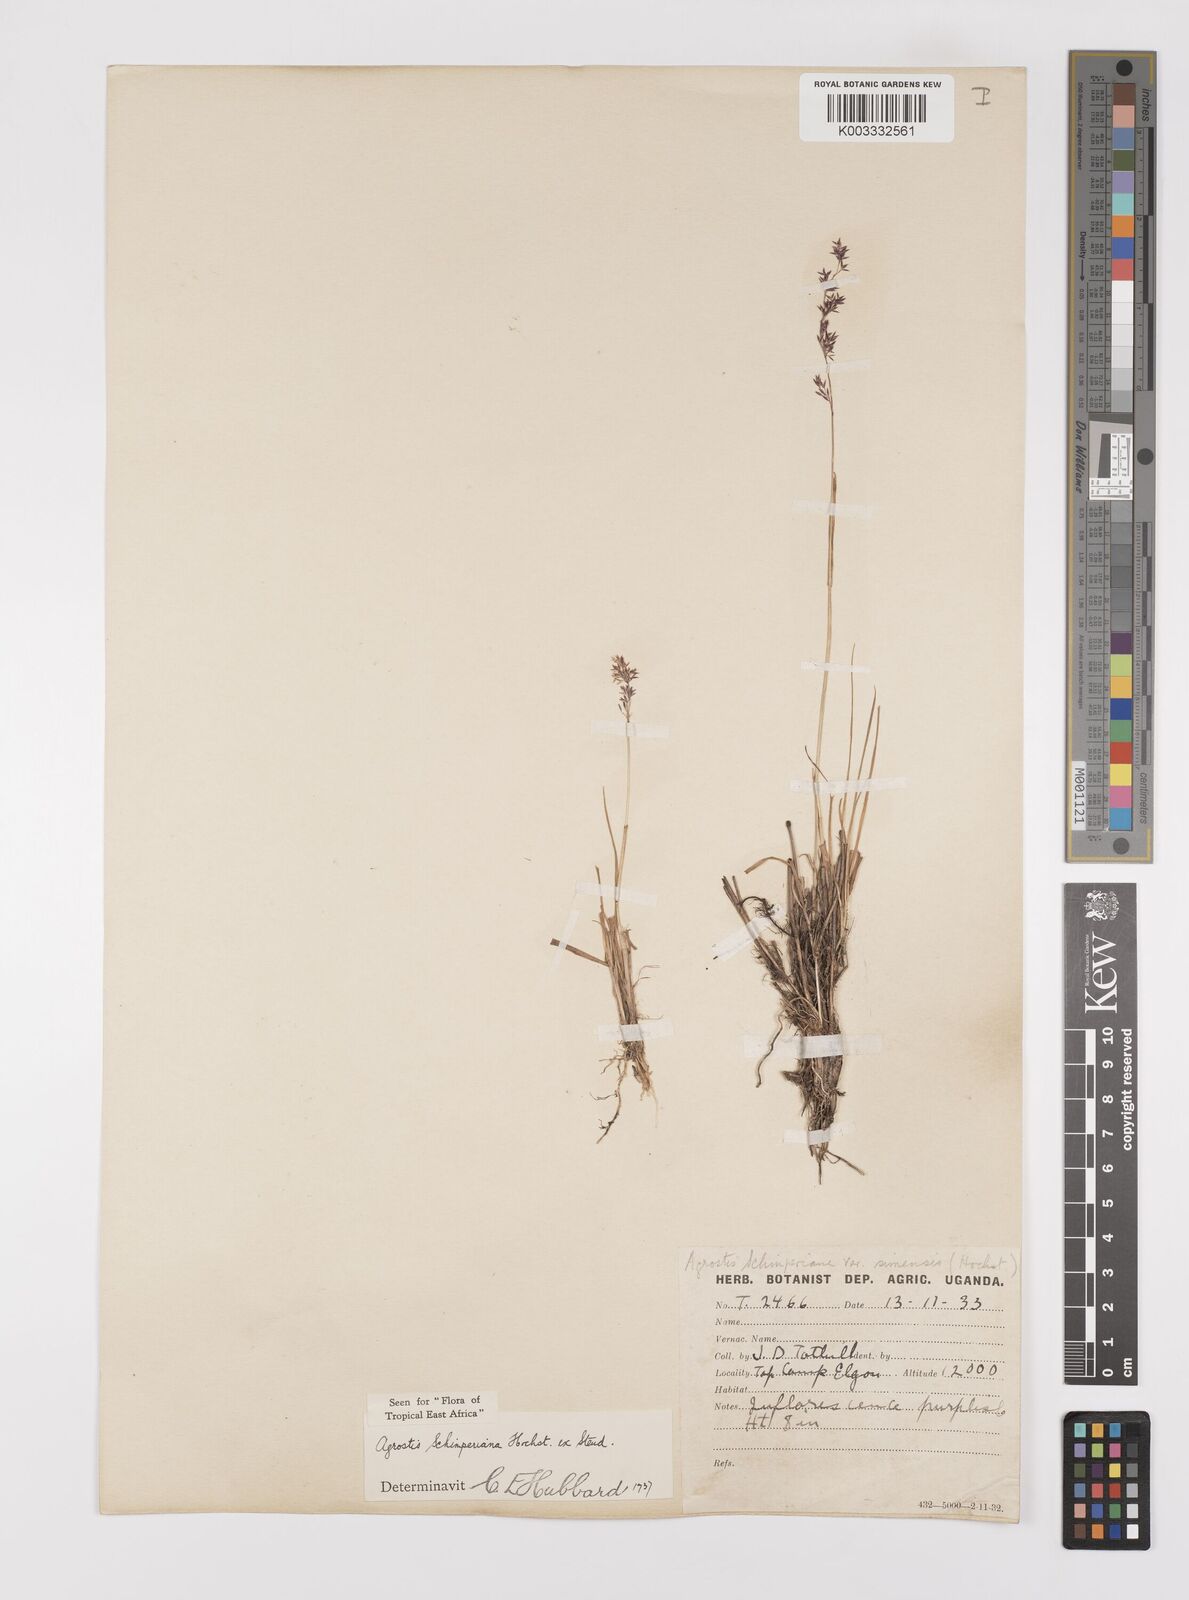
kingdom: Plantae
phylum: Tracheophyta
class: Liliopsida
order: Poales
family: Poaceae
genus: Polypogon
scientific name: Polypogon schimperianus
